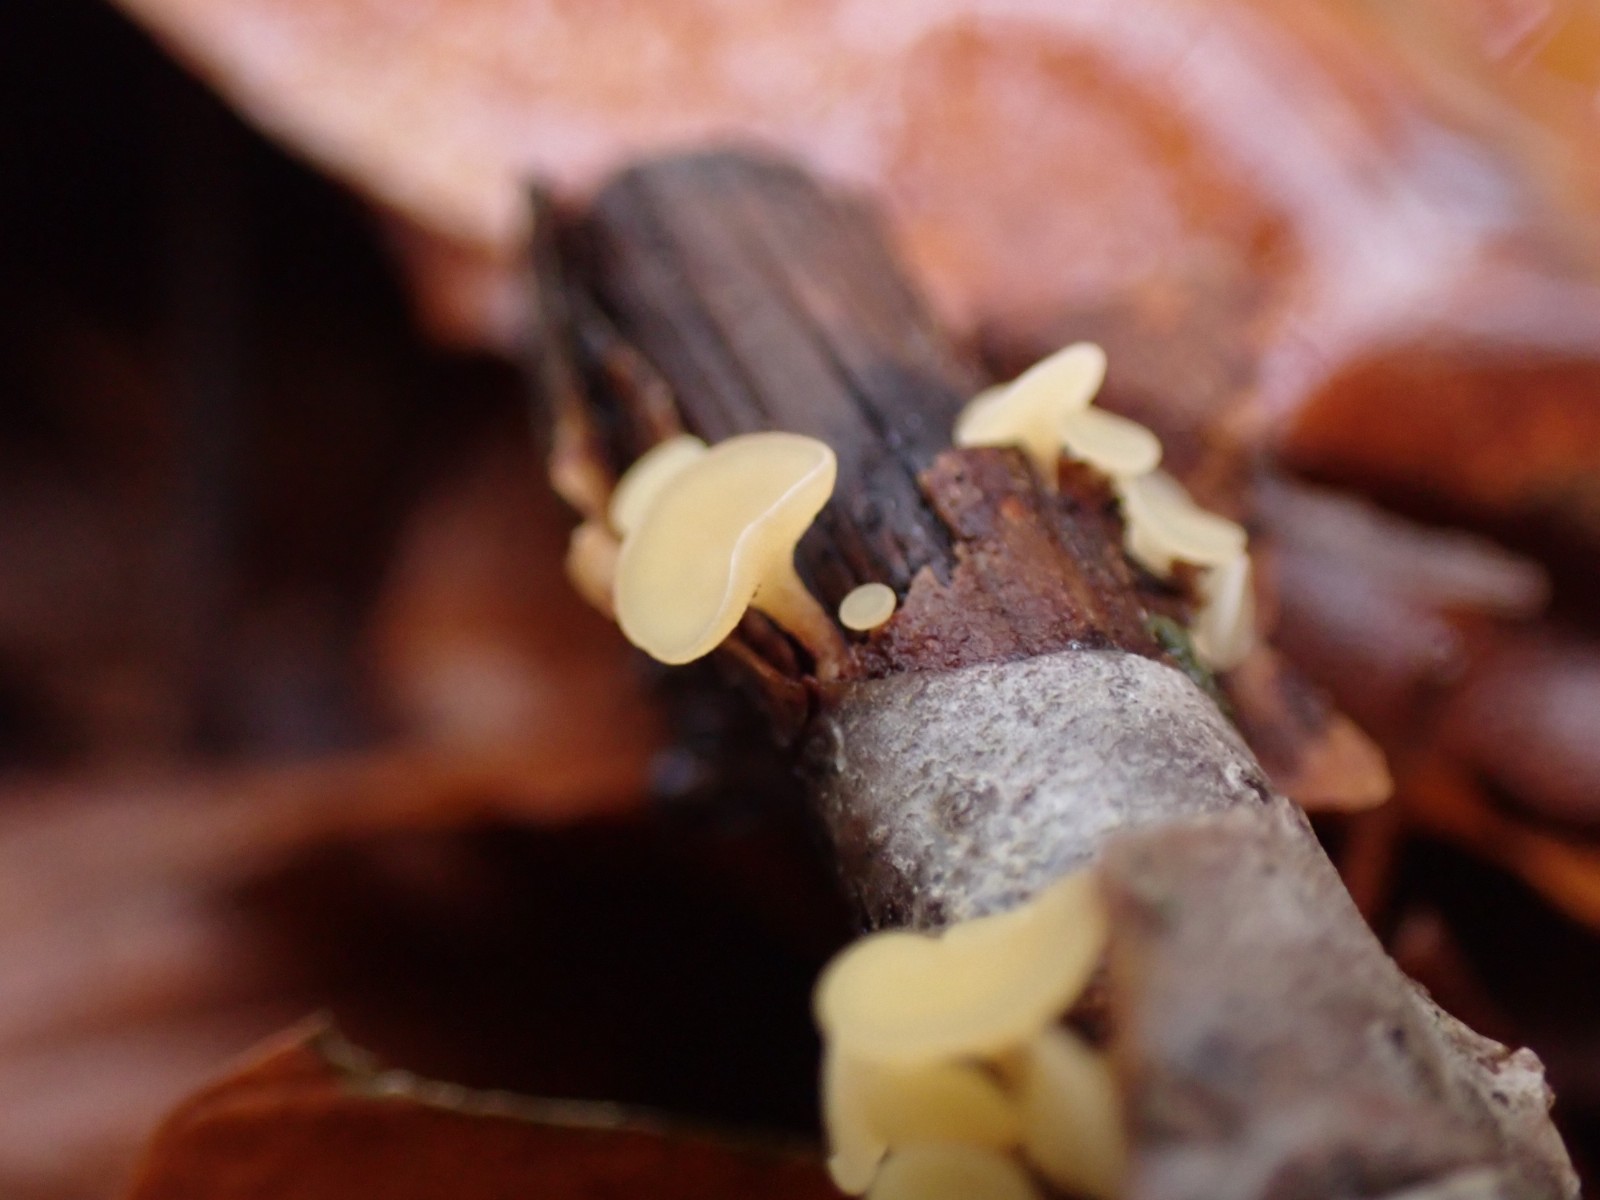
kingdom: Fungi
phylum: Ascomycota
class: Leotiomycetes
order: Helotiales
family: Helotiaceae
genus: Hymenoscyphus
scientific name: Hymenoscyphus serotinus
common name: krumsporet stilkskive
